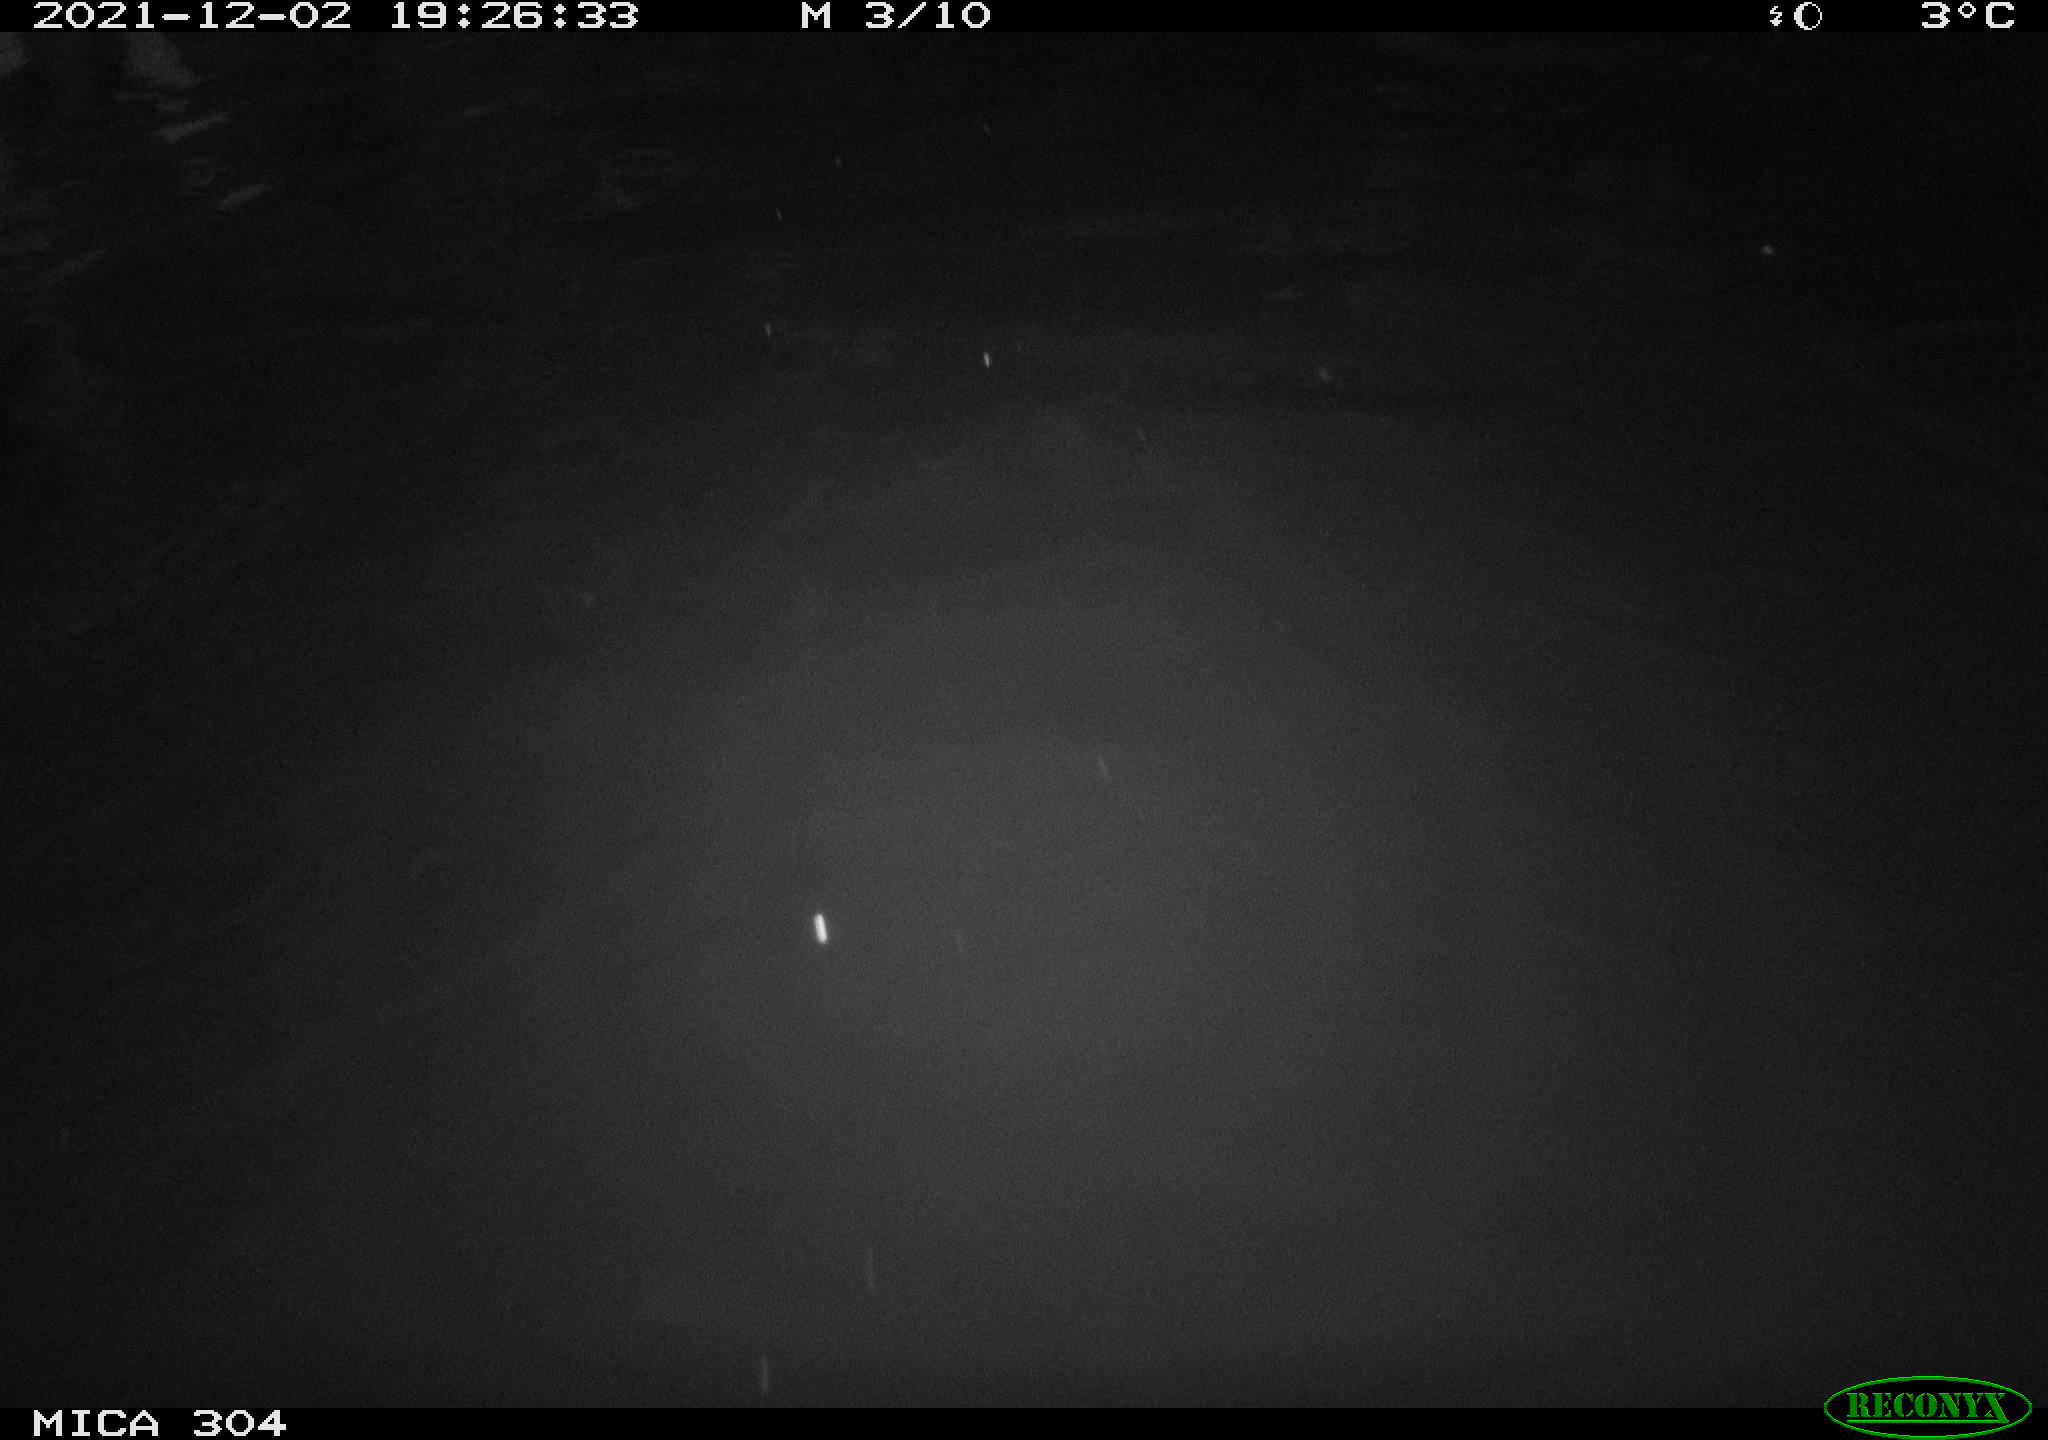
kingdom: Animalia
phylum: Chordata
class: Mammalia
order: Rodentia
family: Muridae
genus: Rattus
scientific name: Rattus norvegicus
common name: Brown rat
